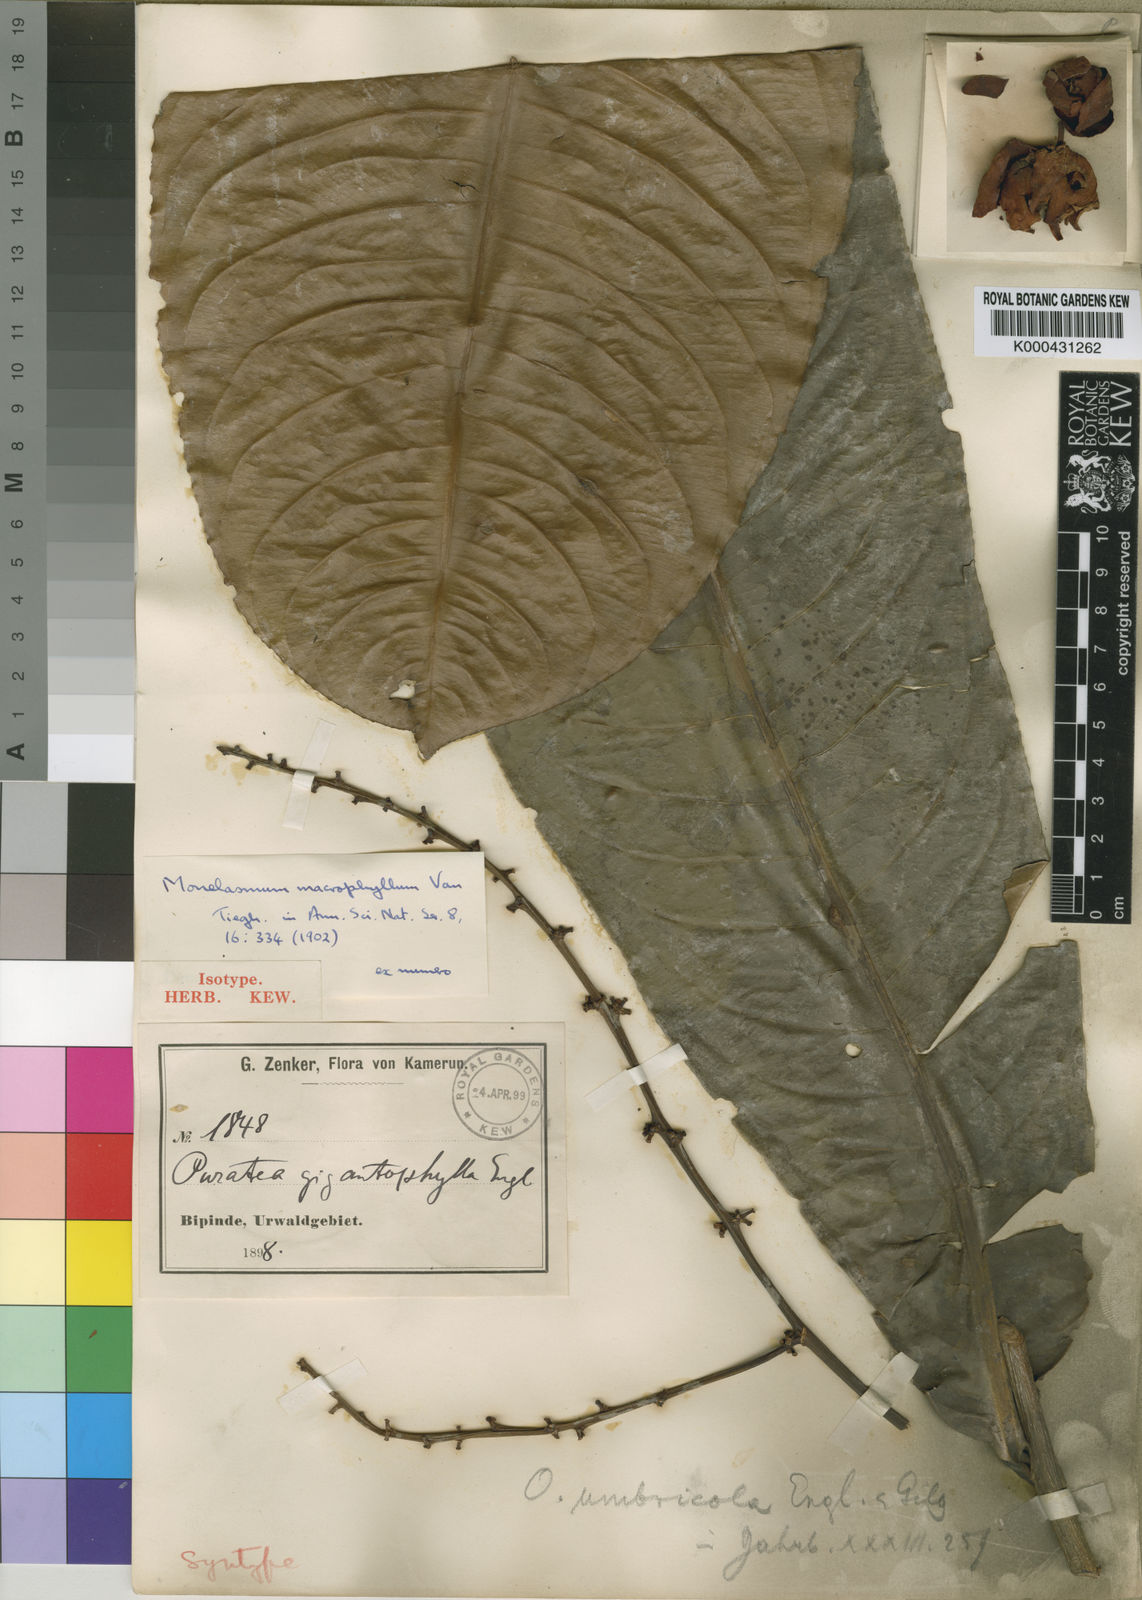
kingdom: Plantae
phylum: Tracheophyta
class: Magnoliopsida
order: Malpighiales
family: Ochnaceae
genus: Campylospermum
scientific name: Campylospermum umbricola
